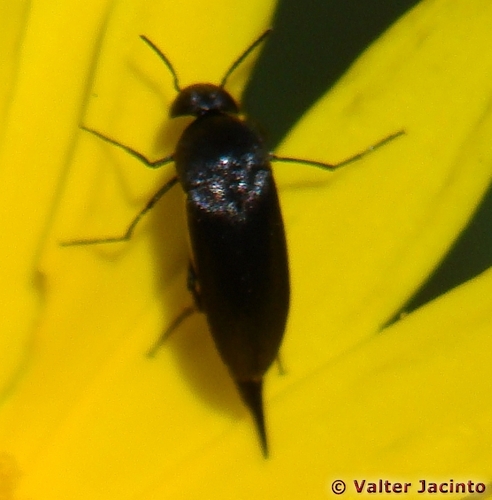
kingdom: Animalia
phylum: Arthropoda
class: Insecta
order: Coleoptera
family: Mordellidae
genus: Mordellistena
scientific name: Mordellistena
